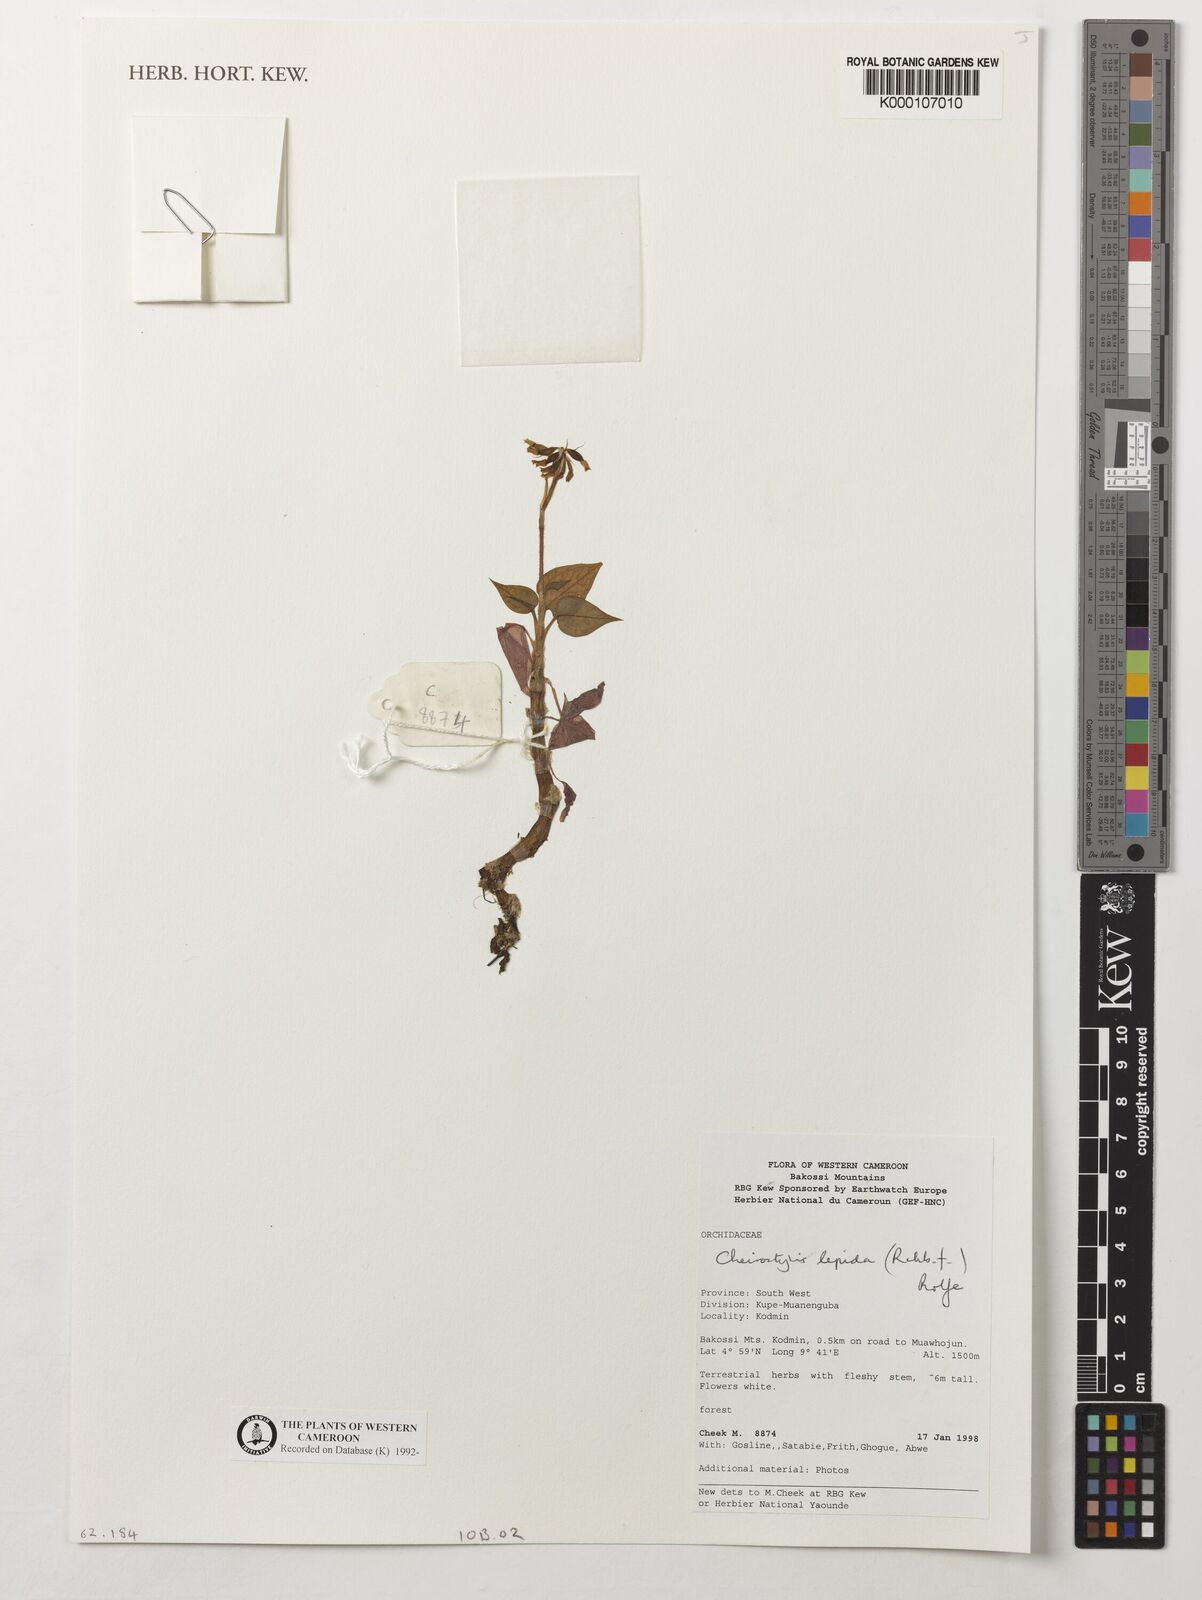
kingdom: Plantae
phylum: Tracheophyta
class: Liliopsida
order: Asparagales
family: Orchidaceae
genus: Cheirostylis
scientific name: Cheirostylis lepida
